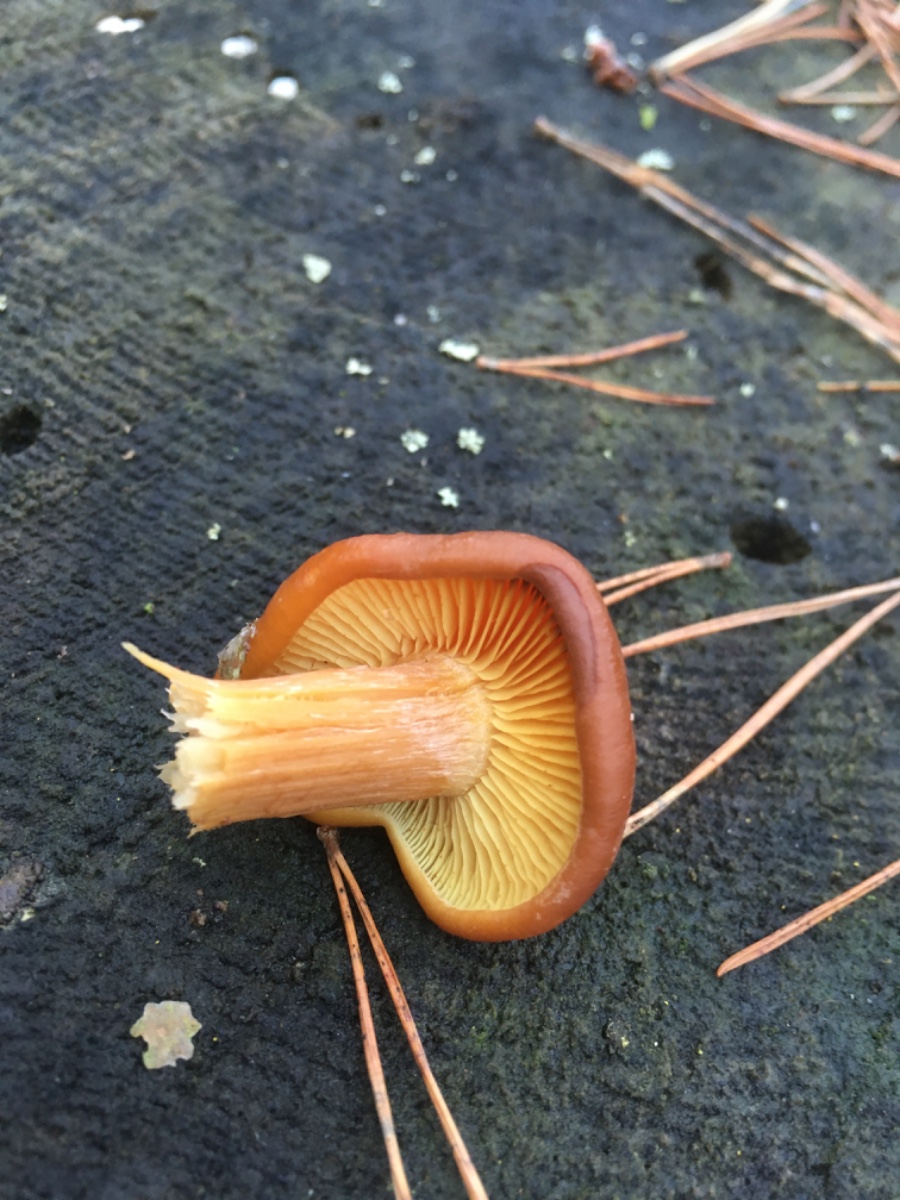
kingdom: Fungi
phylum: Basidiomycota
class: Agaricomycetes
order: Agaricales
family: Hymenogastraceae
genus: Gymnopilus
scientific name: Gymnopilus picreus
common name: puklet flammehat
